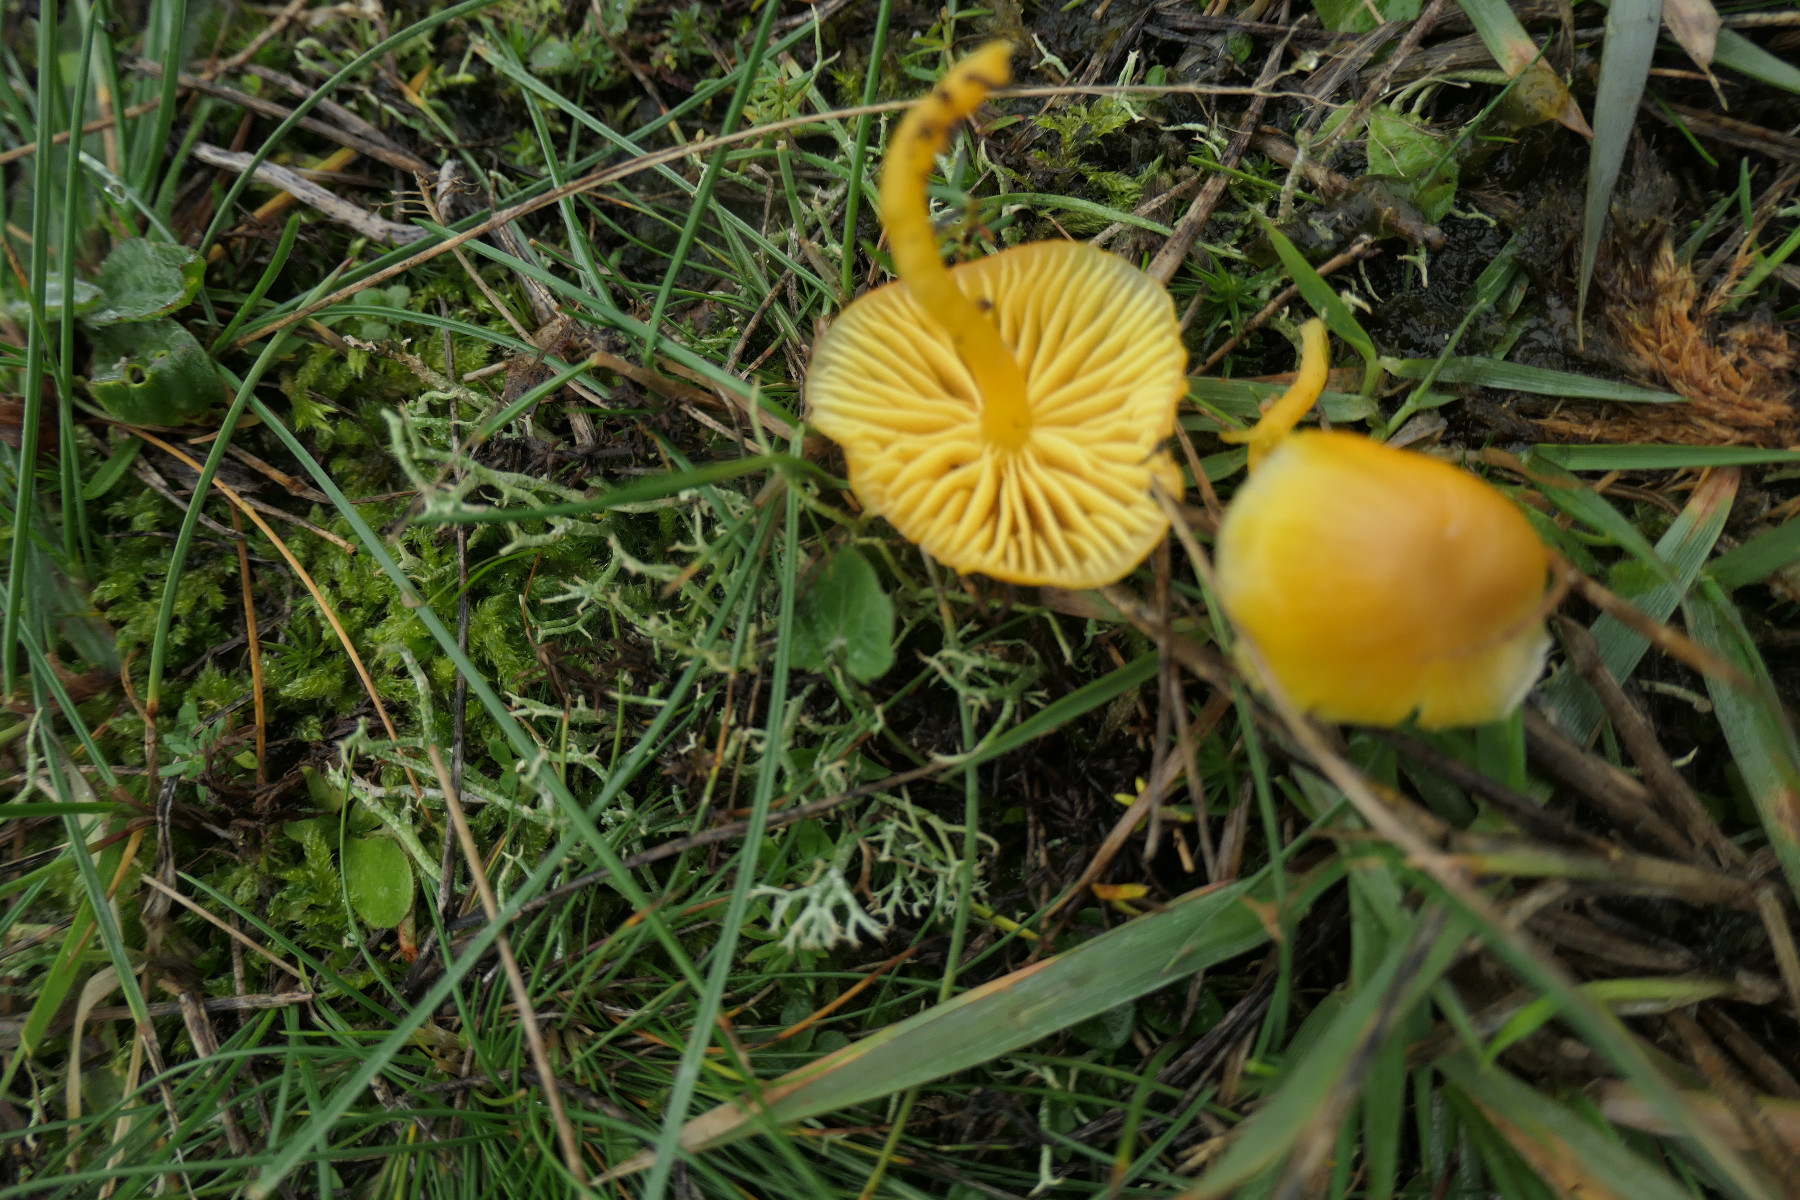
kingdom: Fungi
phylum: Basidiomycota
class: Agaricomycetes
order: Agaricales
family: Hygrophoraceae
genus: Hygrocybe
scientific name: Hygrocybe chlorophana
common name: gul vokshat
